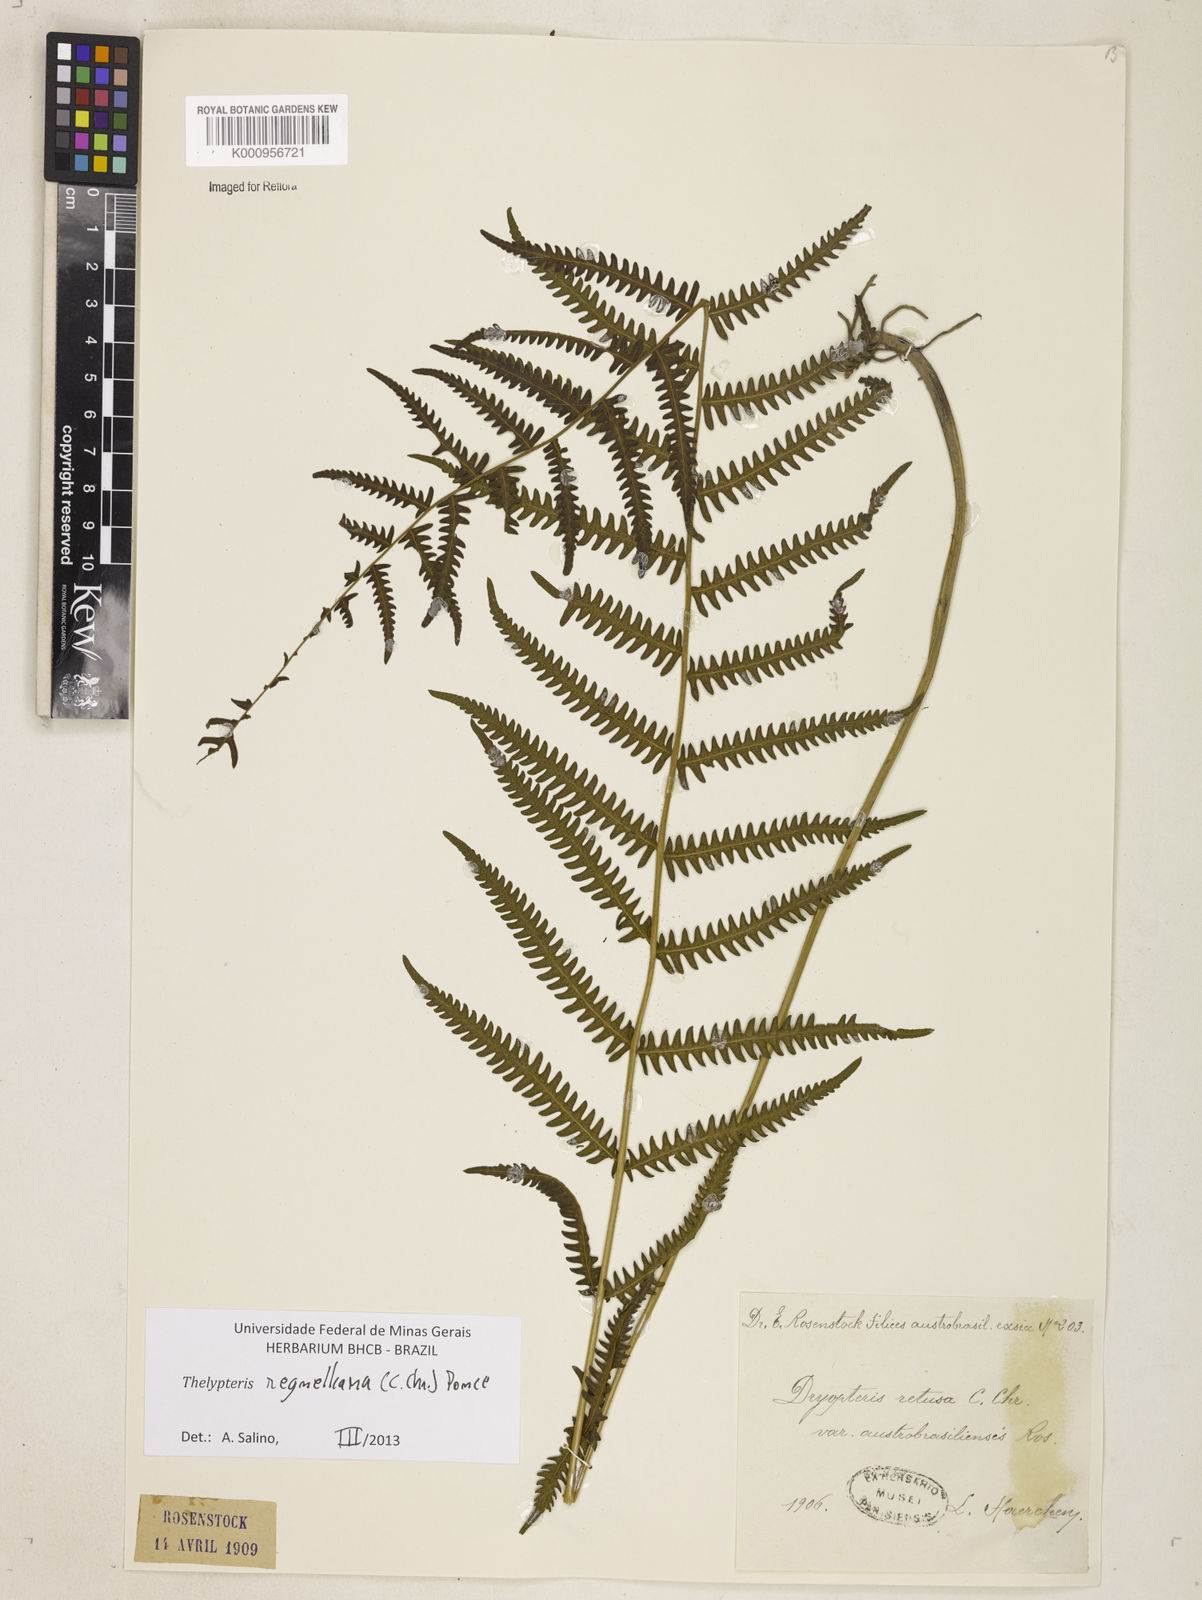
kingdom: Plantae
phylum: Tracheophyta
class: Polypodiopsida
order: Polypodiales
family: Thelypteridaceae
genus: Amauropelta
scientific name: Amauropelta
